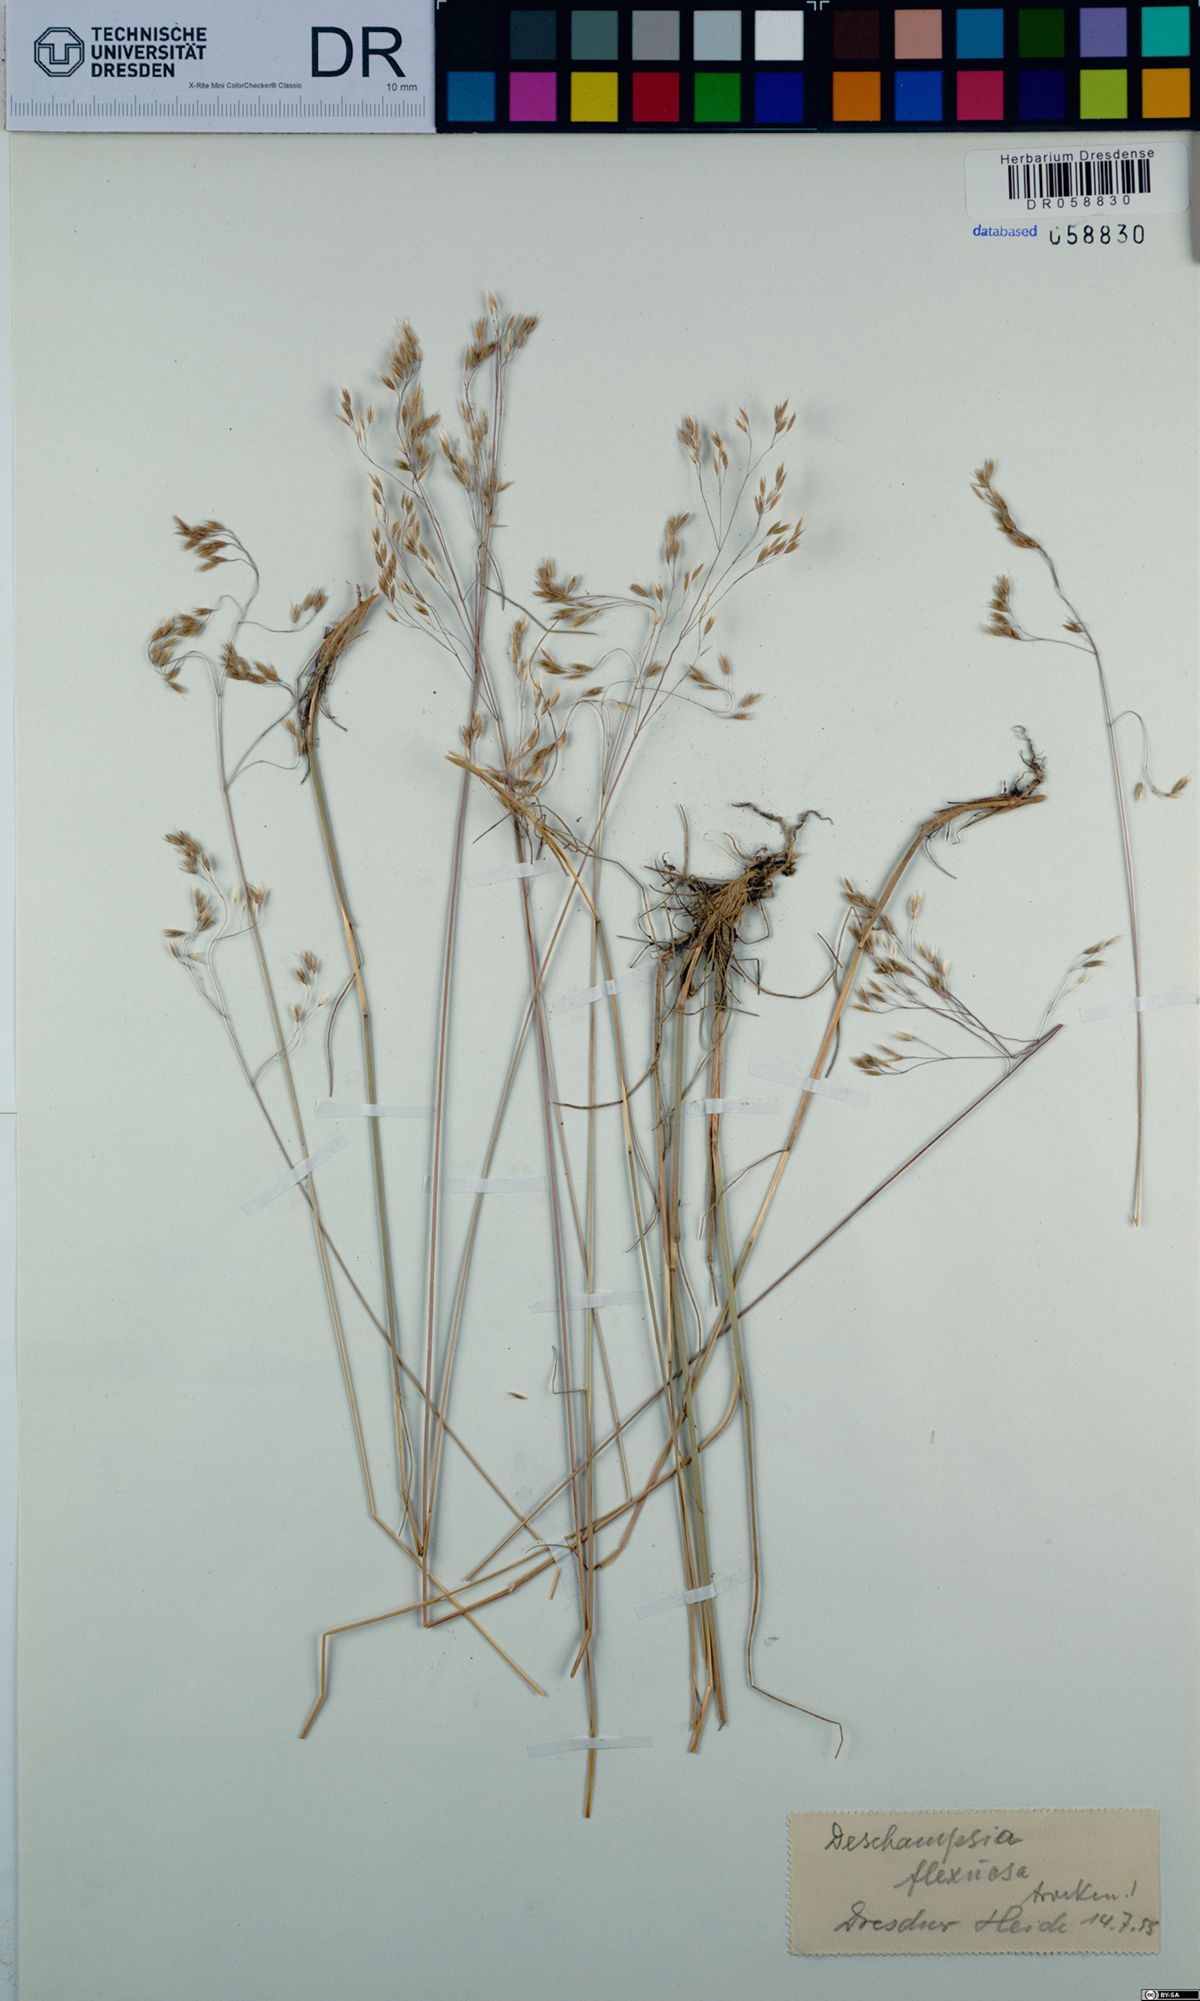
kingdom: Plantae
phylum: Tracheophyta
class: Liliopsida
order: Poales
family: Poaceae
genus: Avenella
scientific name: Avenella flexuosa
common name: Wavy hairgrass
